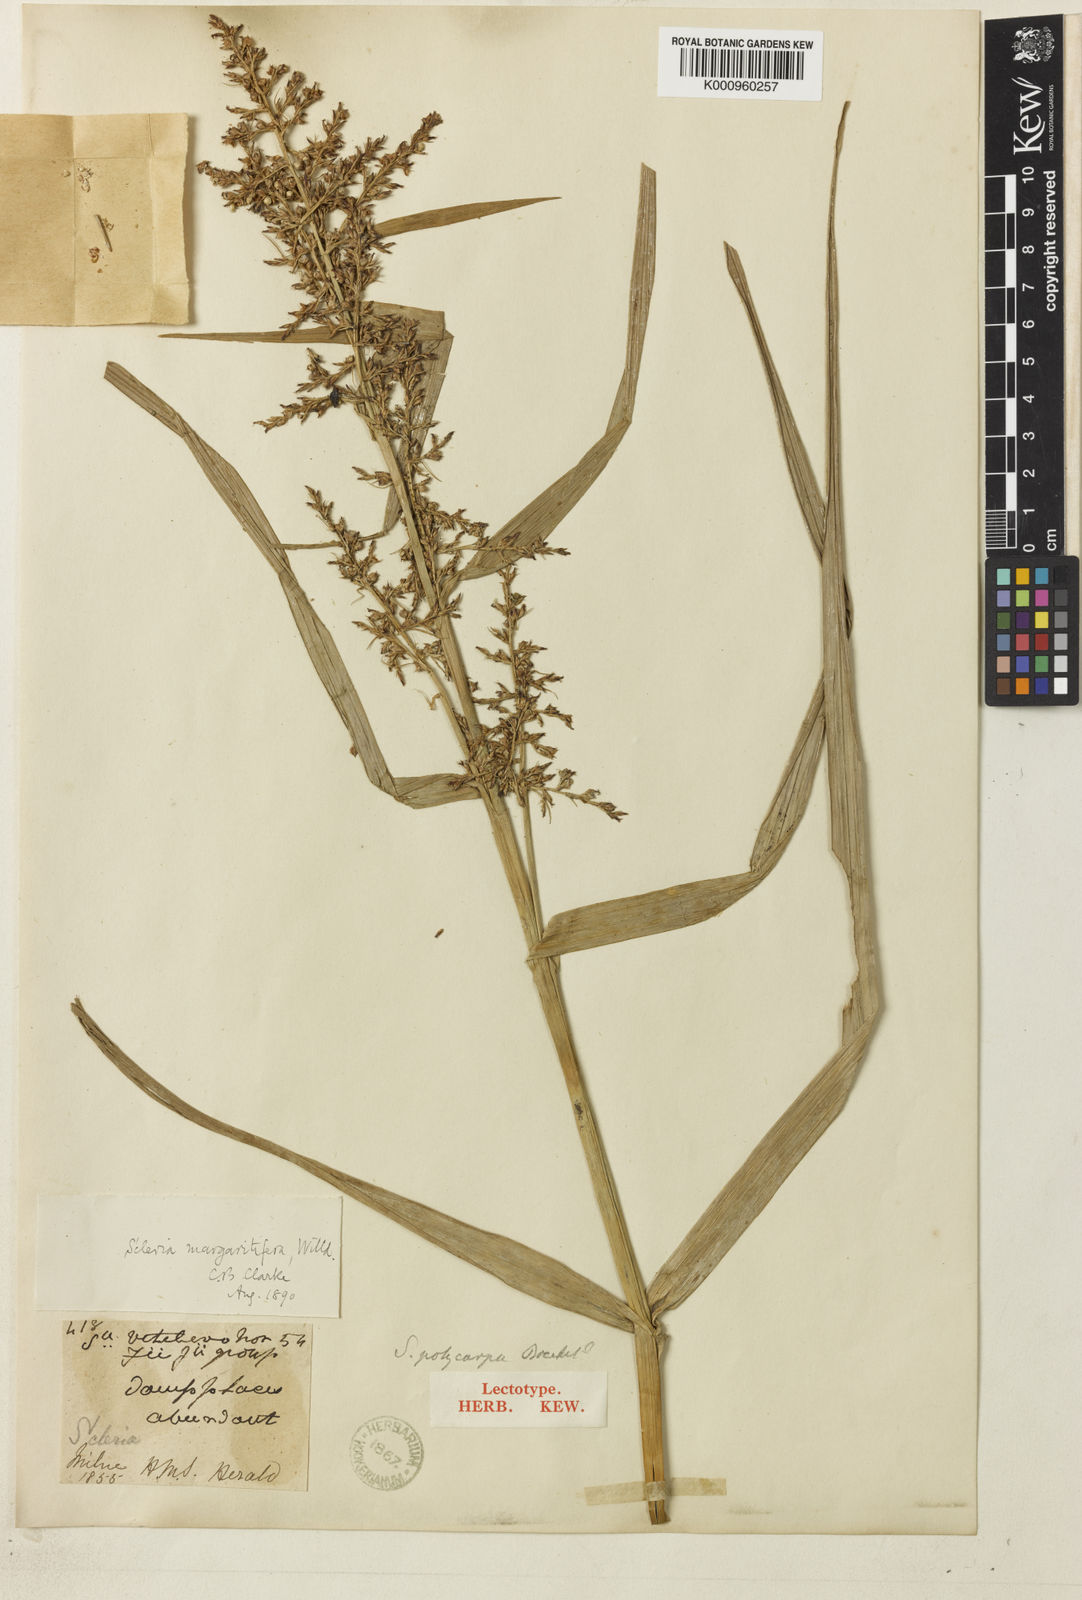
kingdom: Plantae
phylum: Tracheophyta
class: Liliopsida
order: Poales
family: Cyperaceae
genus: Scleria
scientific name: Scleria polycarpa
